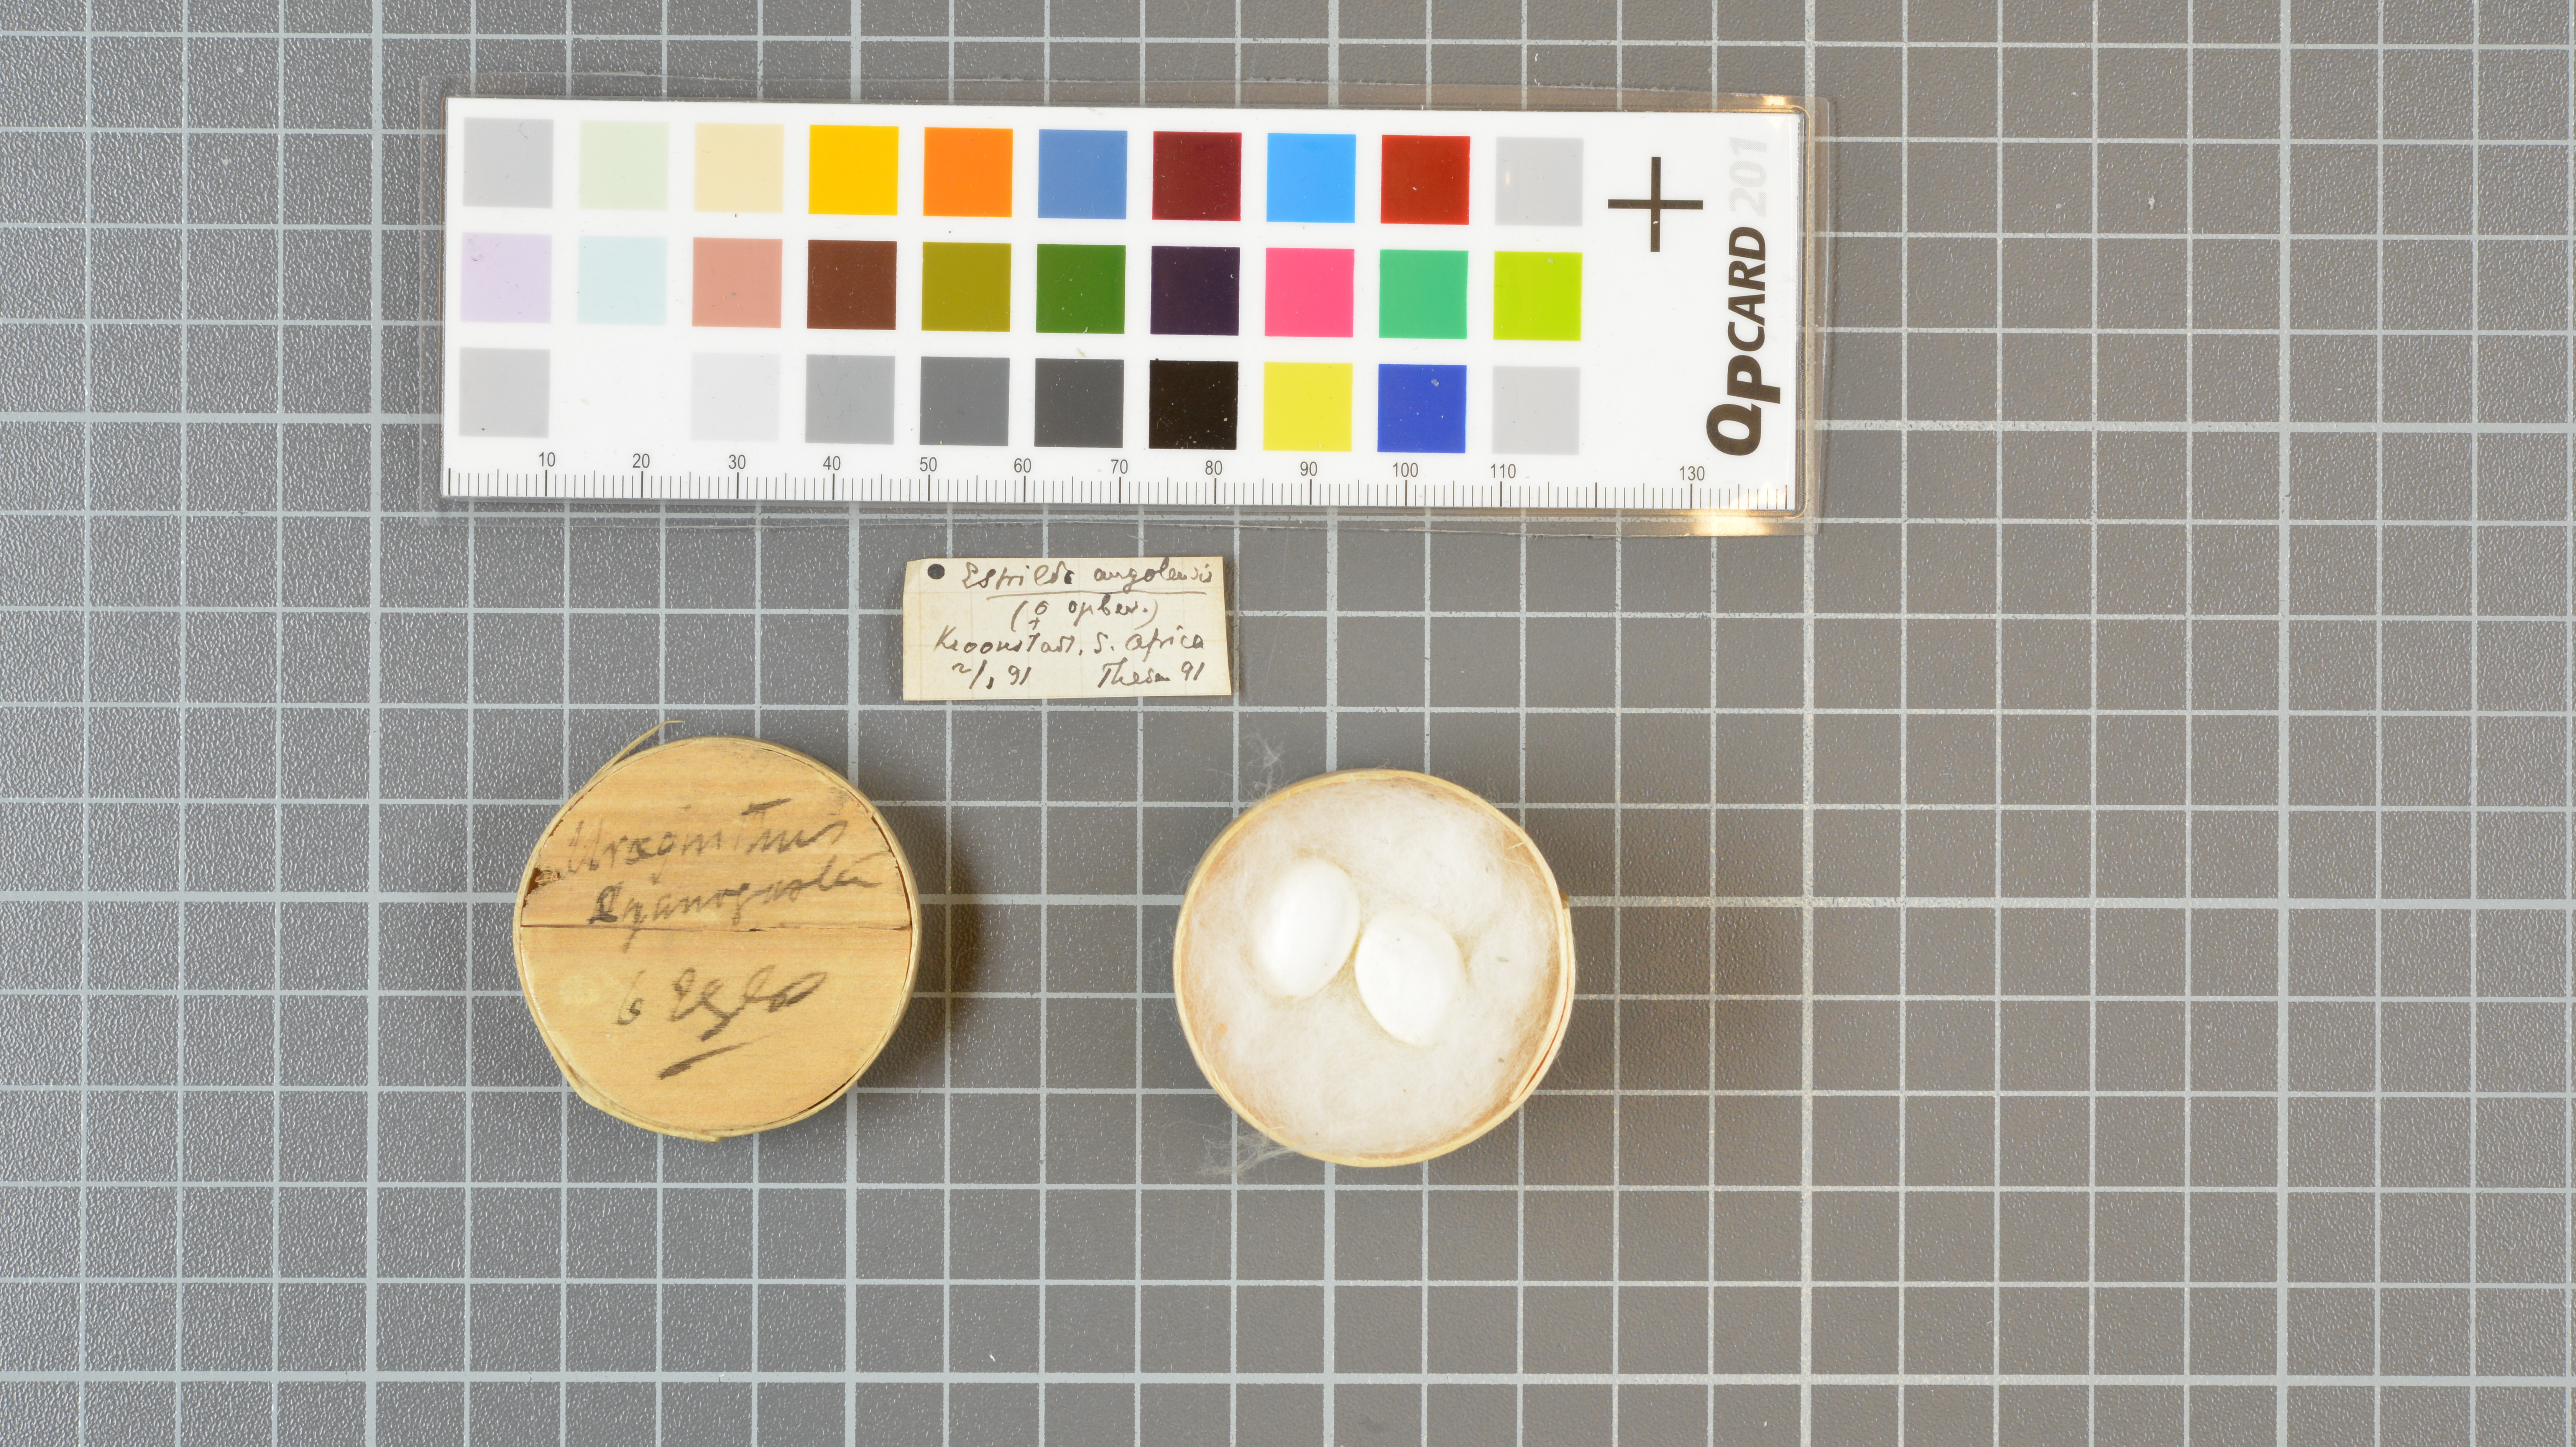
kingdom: Animalia
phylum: Chordata
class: Aves
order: Passeriformes
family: Estrildidae
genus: Estrilda
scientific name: Estrilda astrild
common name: Common waxbill
